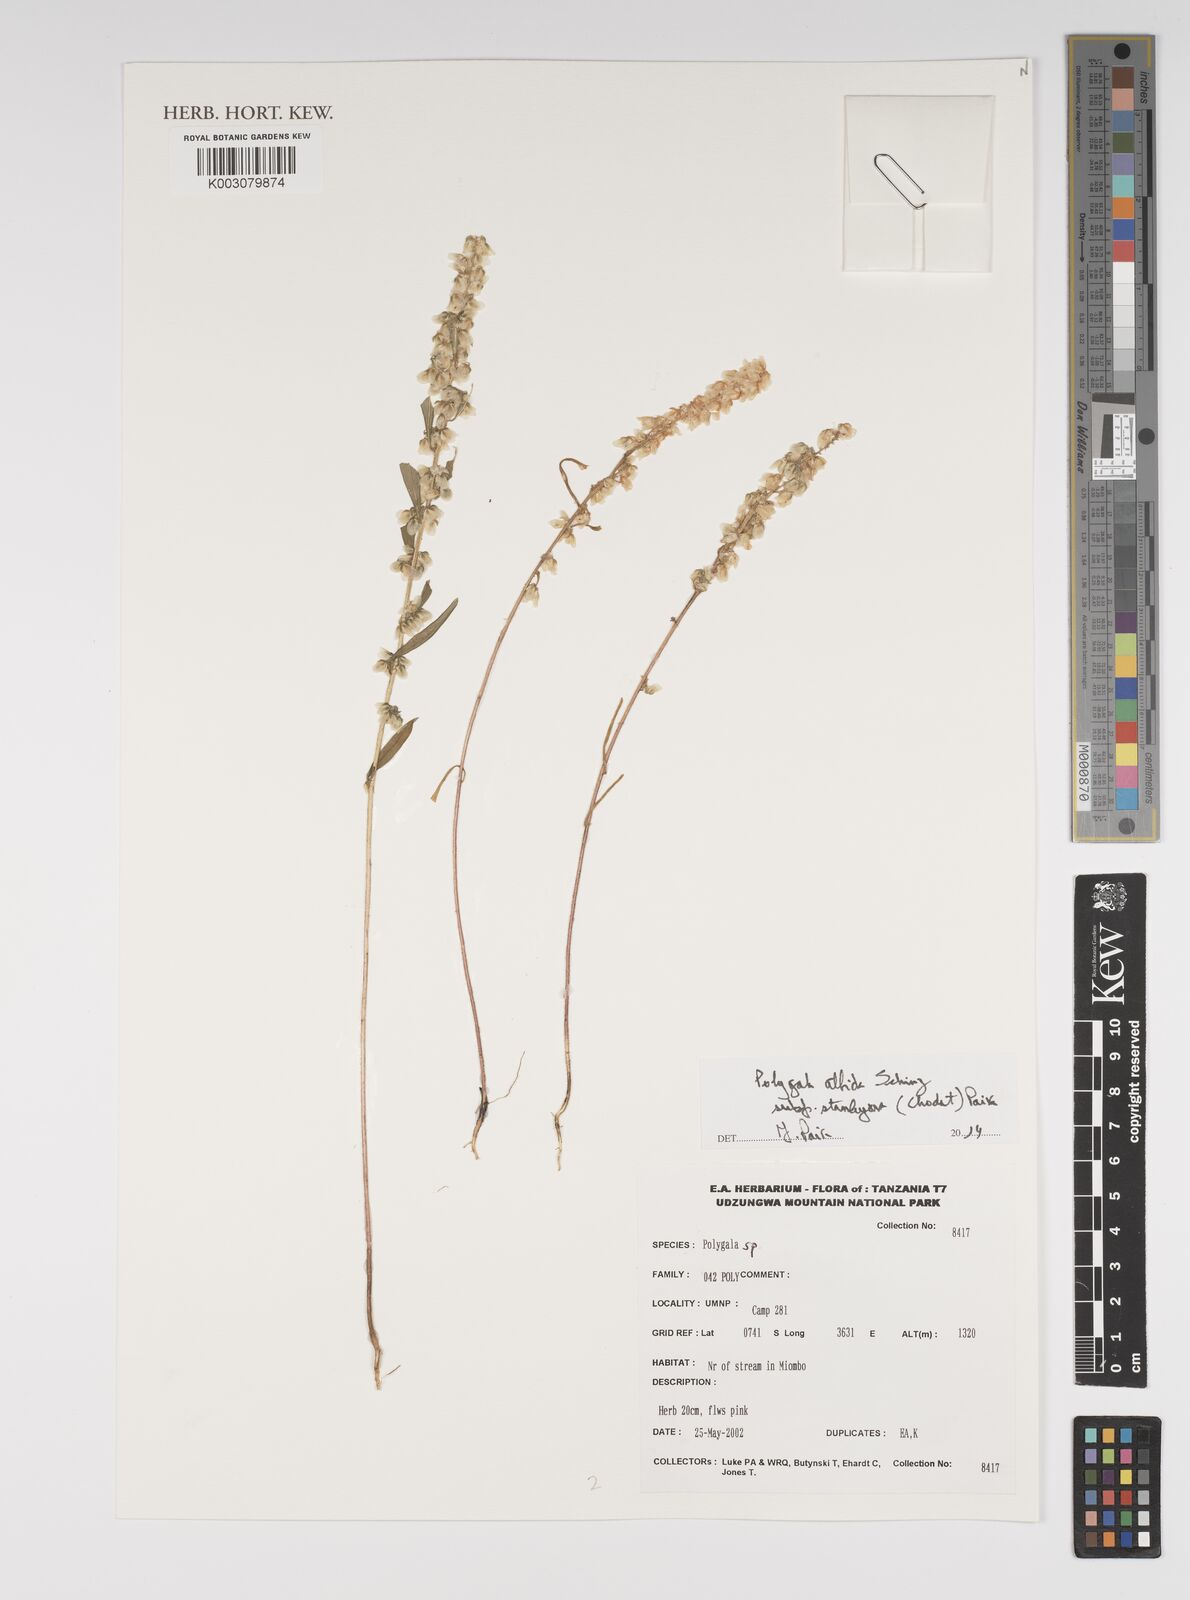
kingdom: Plantae
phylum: Tracheophyta
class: Magnoliopsida
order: Fabales
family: Polygalaceae
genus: Polygala
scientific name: Polygala albida
